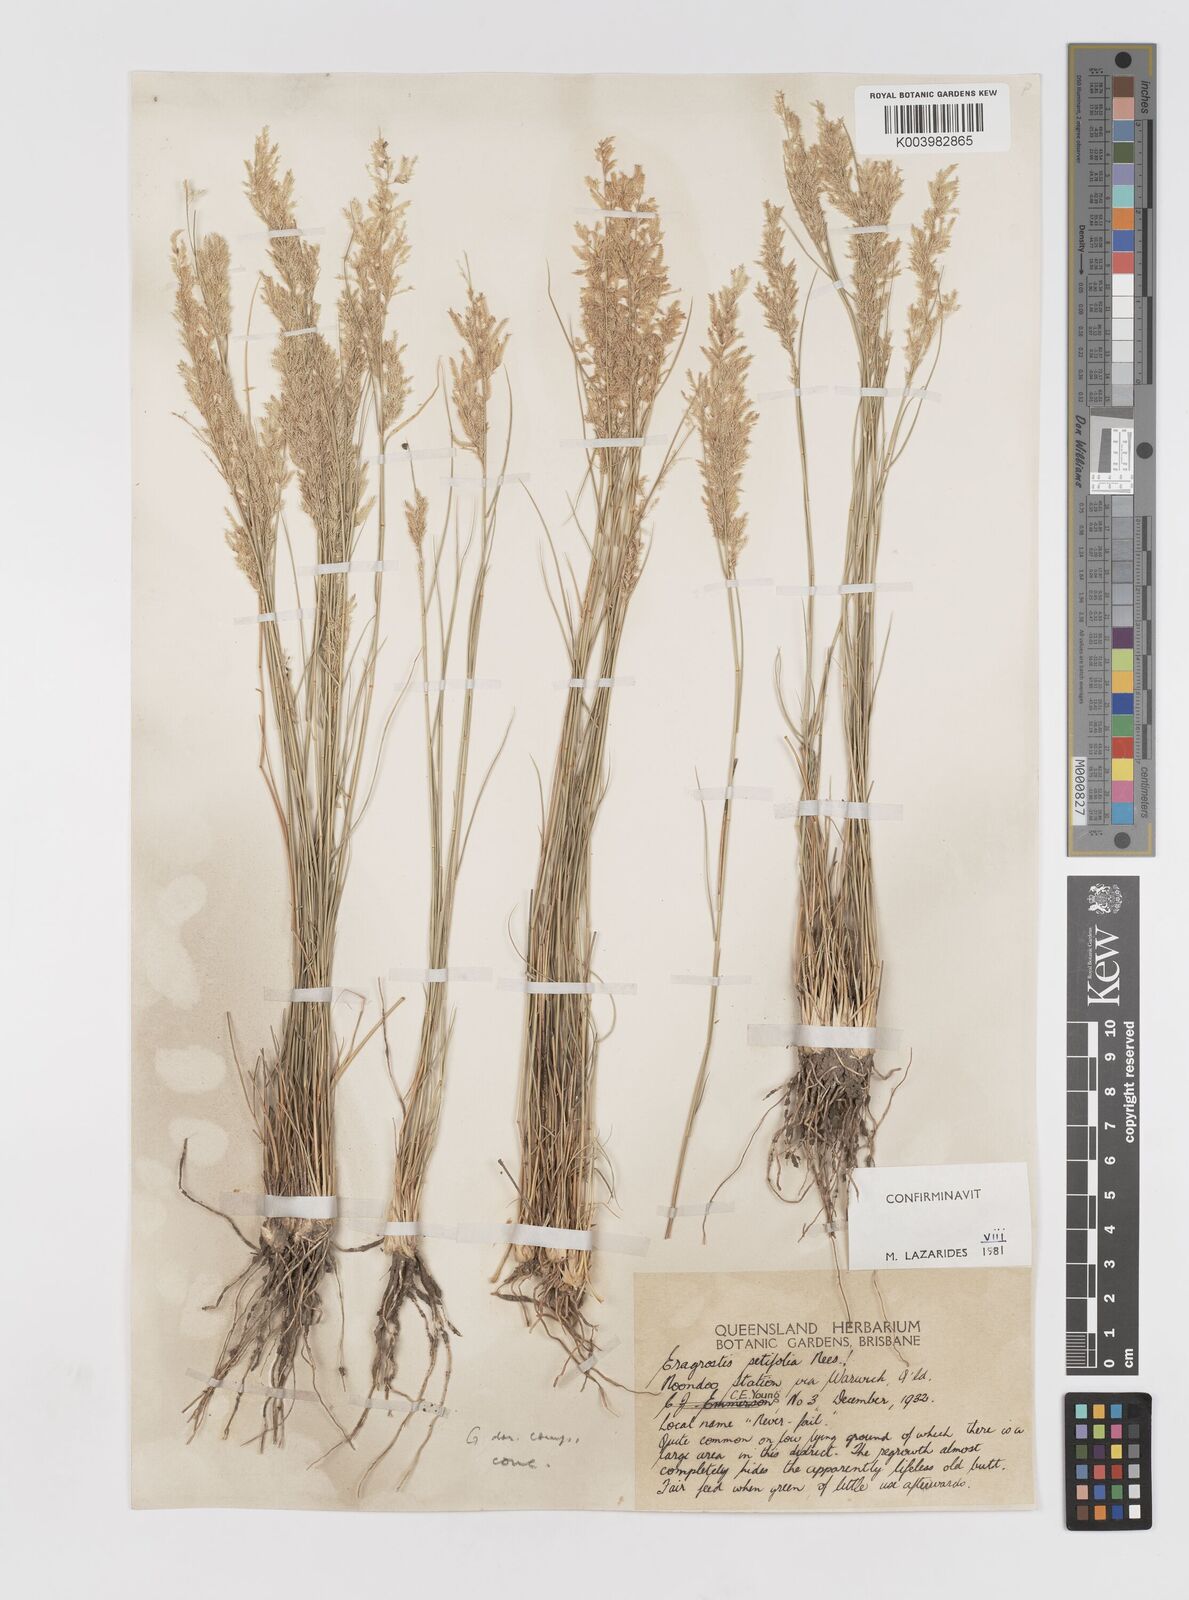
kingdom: Plantae
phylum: Tracheophyta
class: Liliopsida
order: Poales
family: Poaceae
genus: Eragrostis
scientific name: Eragrostis setifolia
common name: Bristleleaf lovegrass
